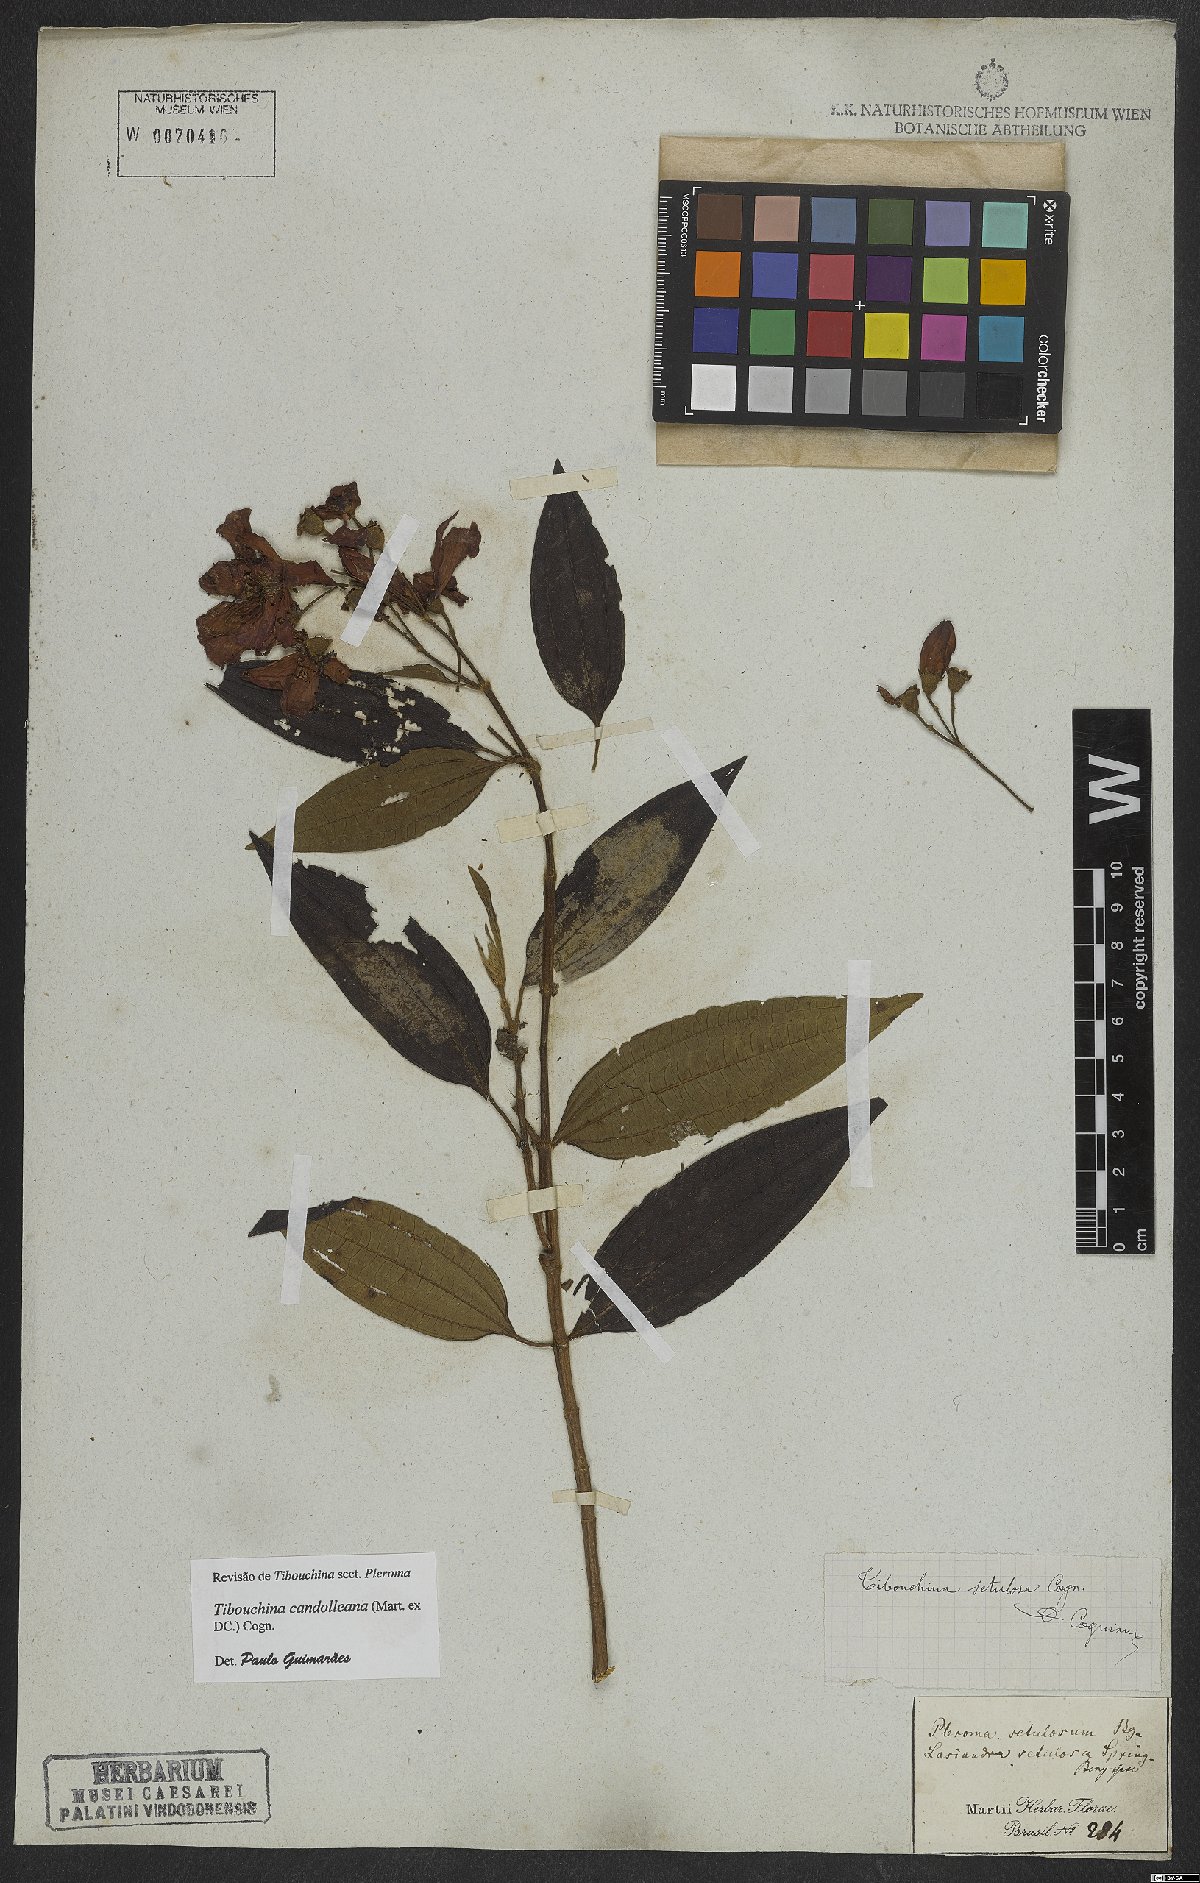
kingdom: Plantae
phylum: Tracheophyta
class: Magnoliopsida
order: Myrtales
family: Melastomataceae
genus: Pleroma
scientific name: Pleroma candolleanum
